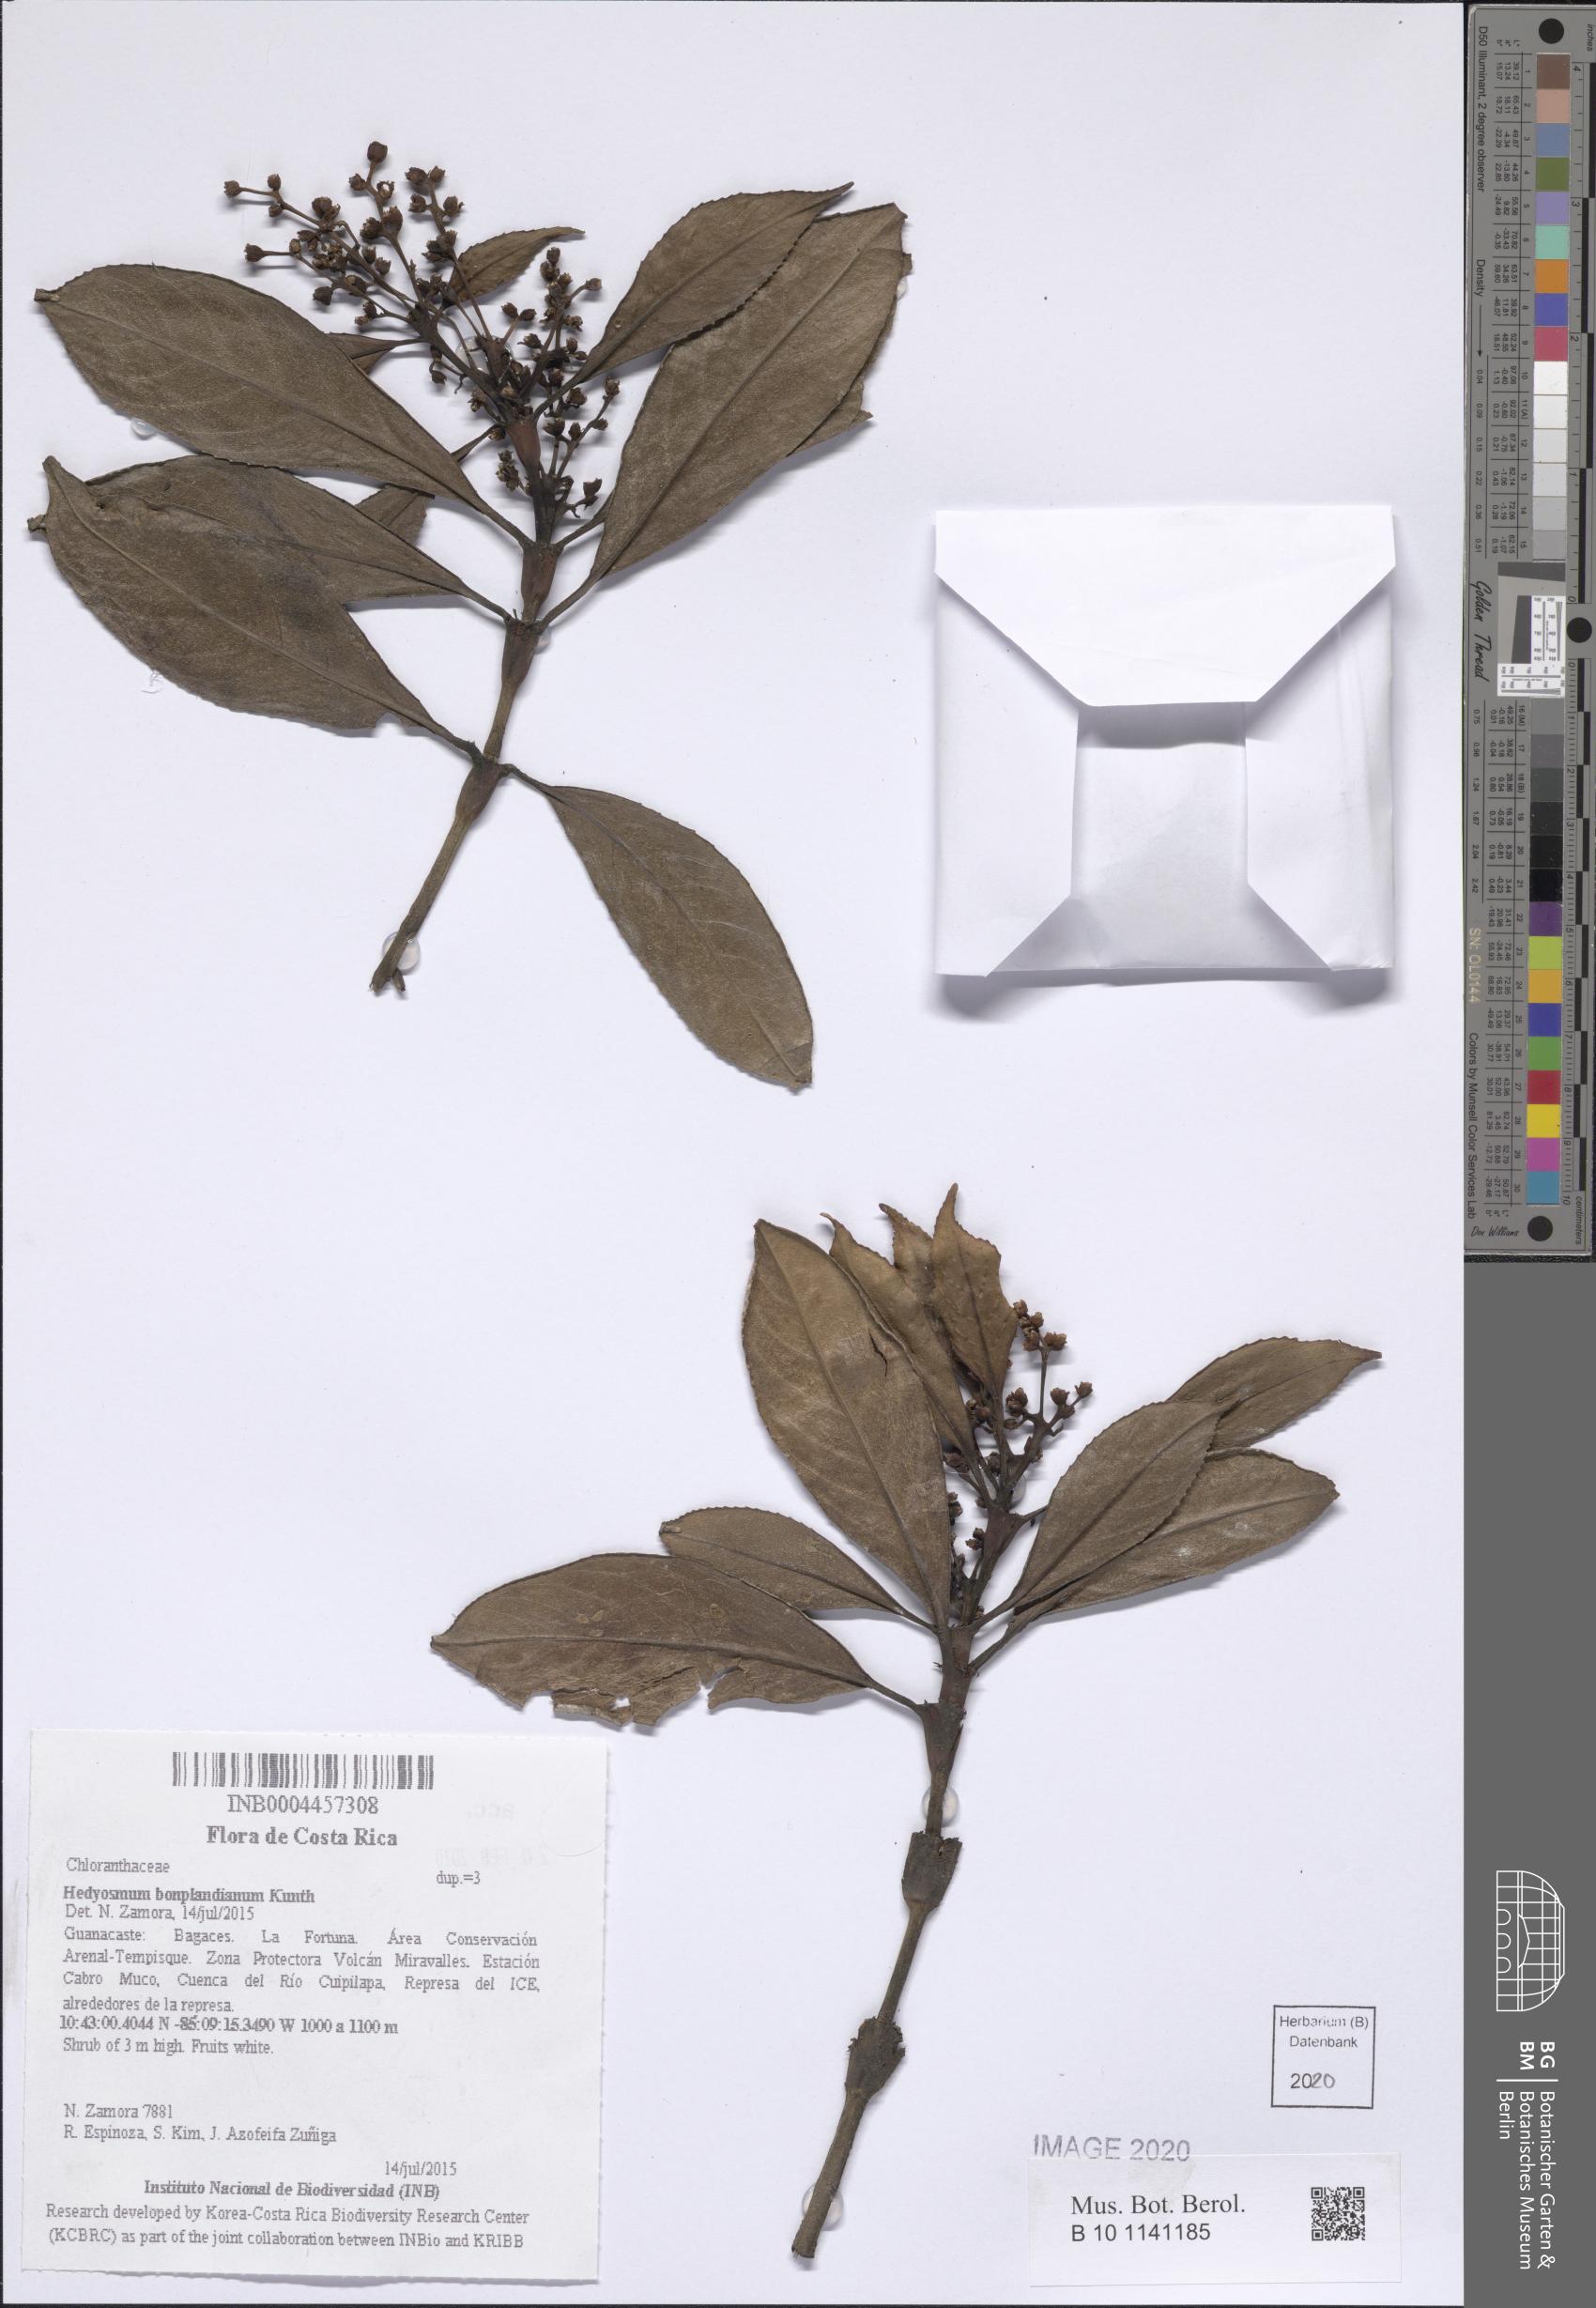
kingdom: Plantae
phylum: Tracheophyta
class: Magnoliopsida
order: Chloranthales
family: Chloranthaceae
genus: Hedyosmum
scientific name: Hedyosmum bonplandianum
